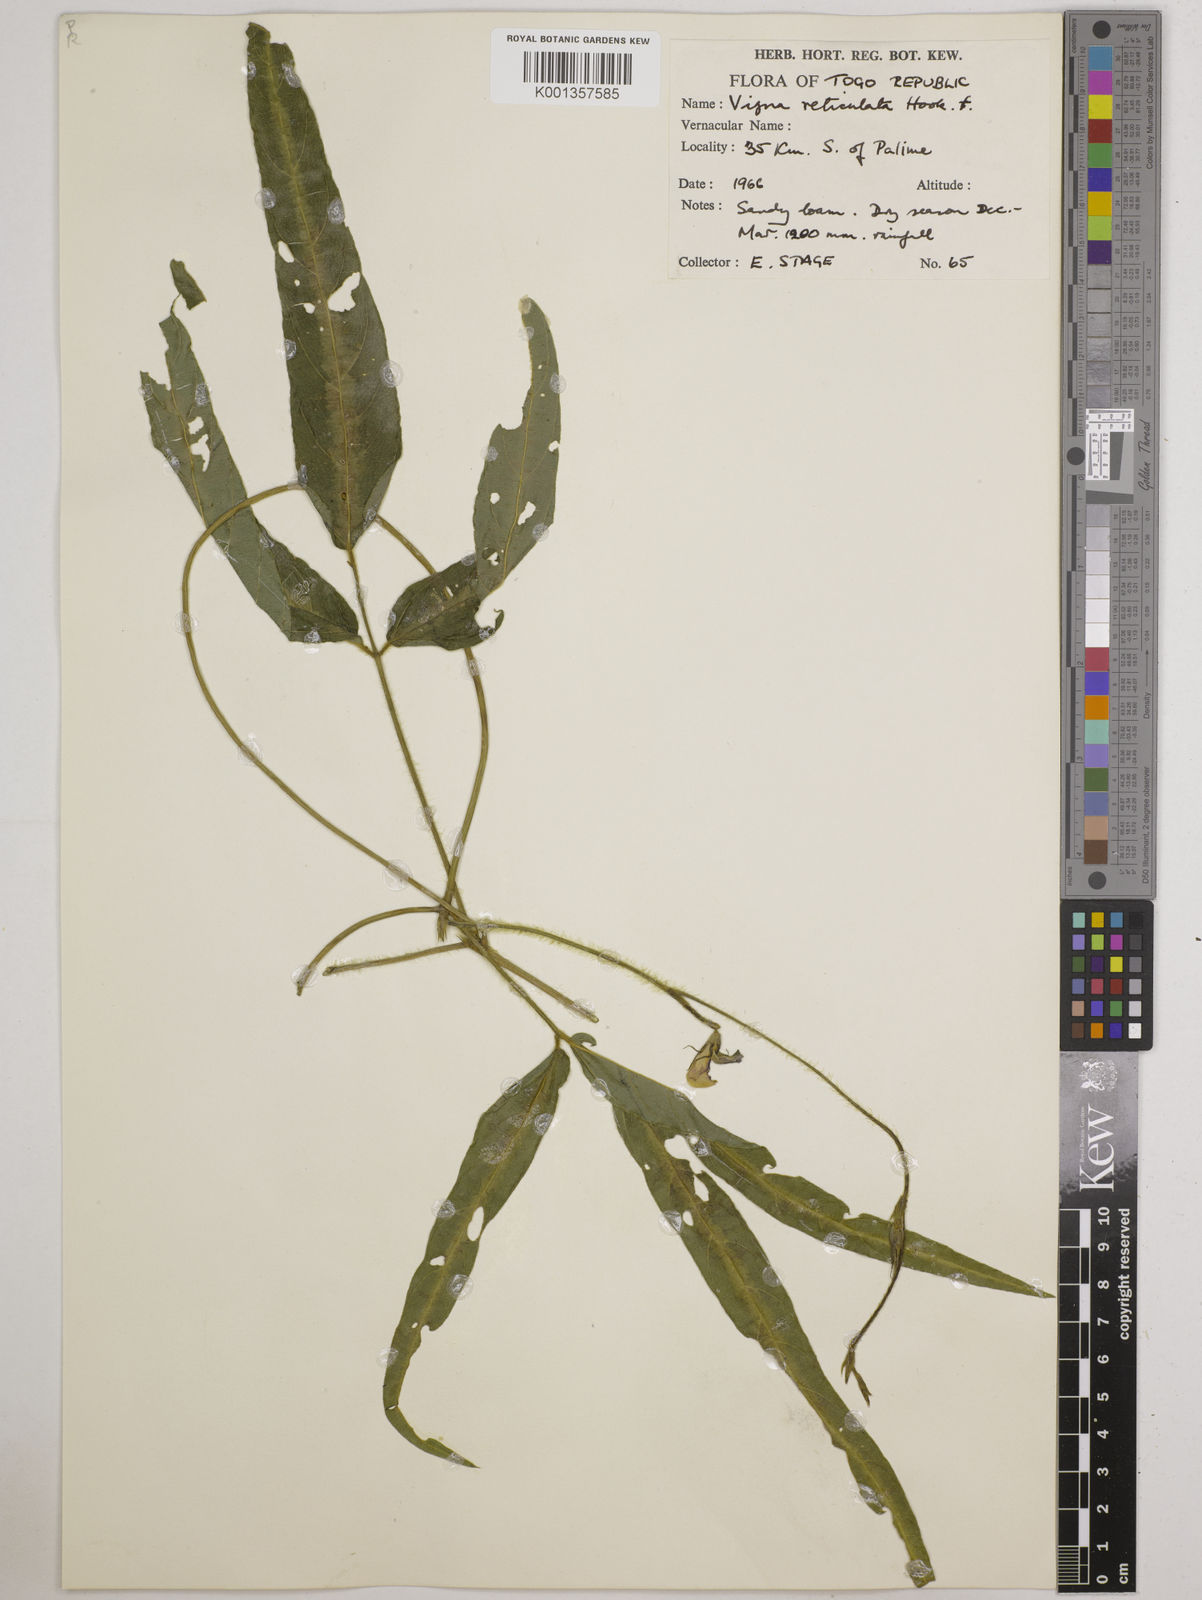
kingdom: Plantae
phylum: Tracheophyta
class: Magnoliopsida
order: Fabales
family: Fabaceae
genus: Vigna
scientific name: Vigna reticulata
